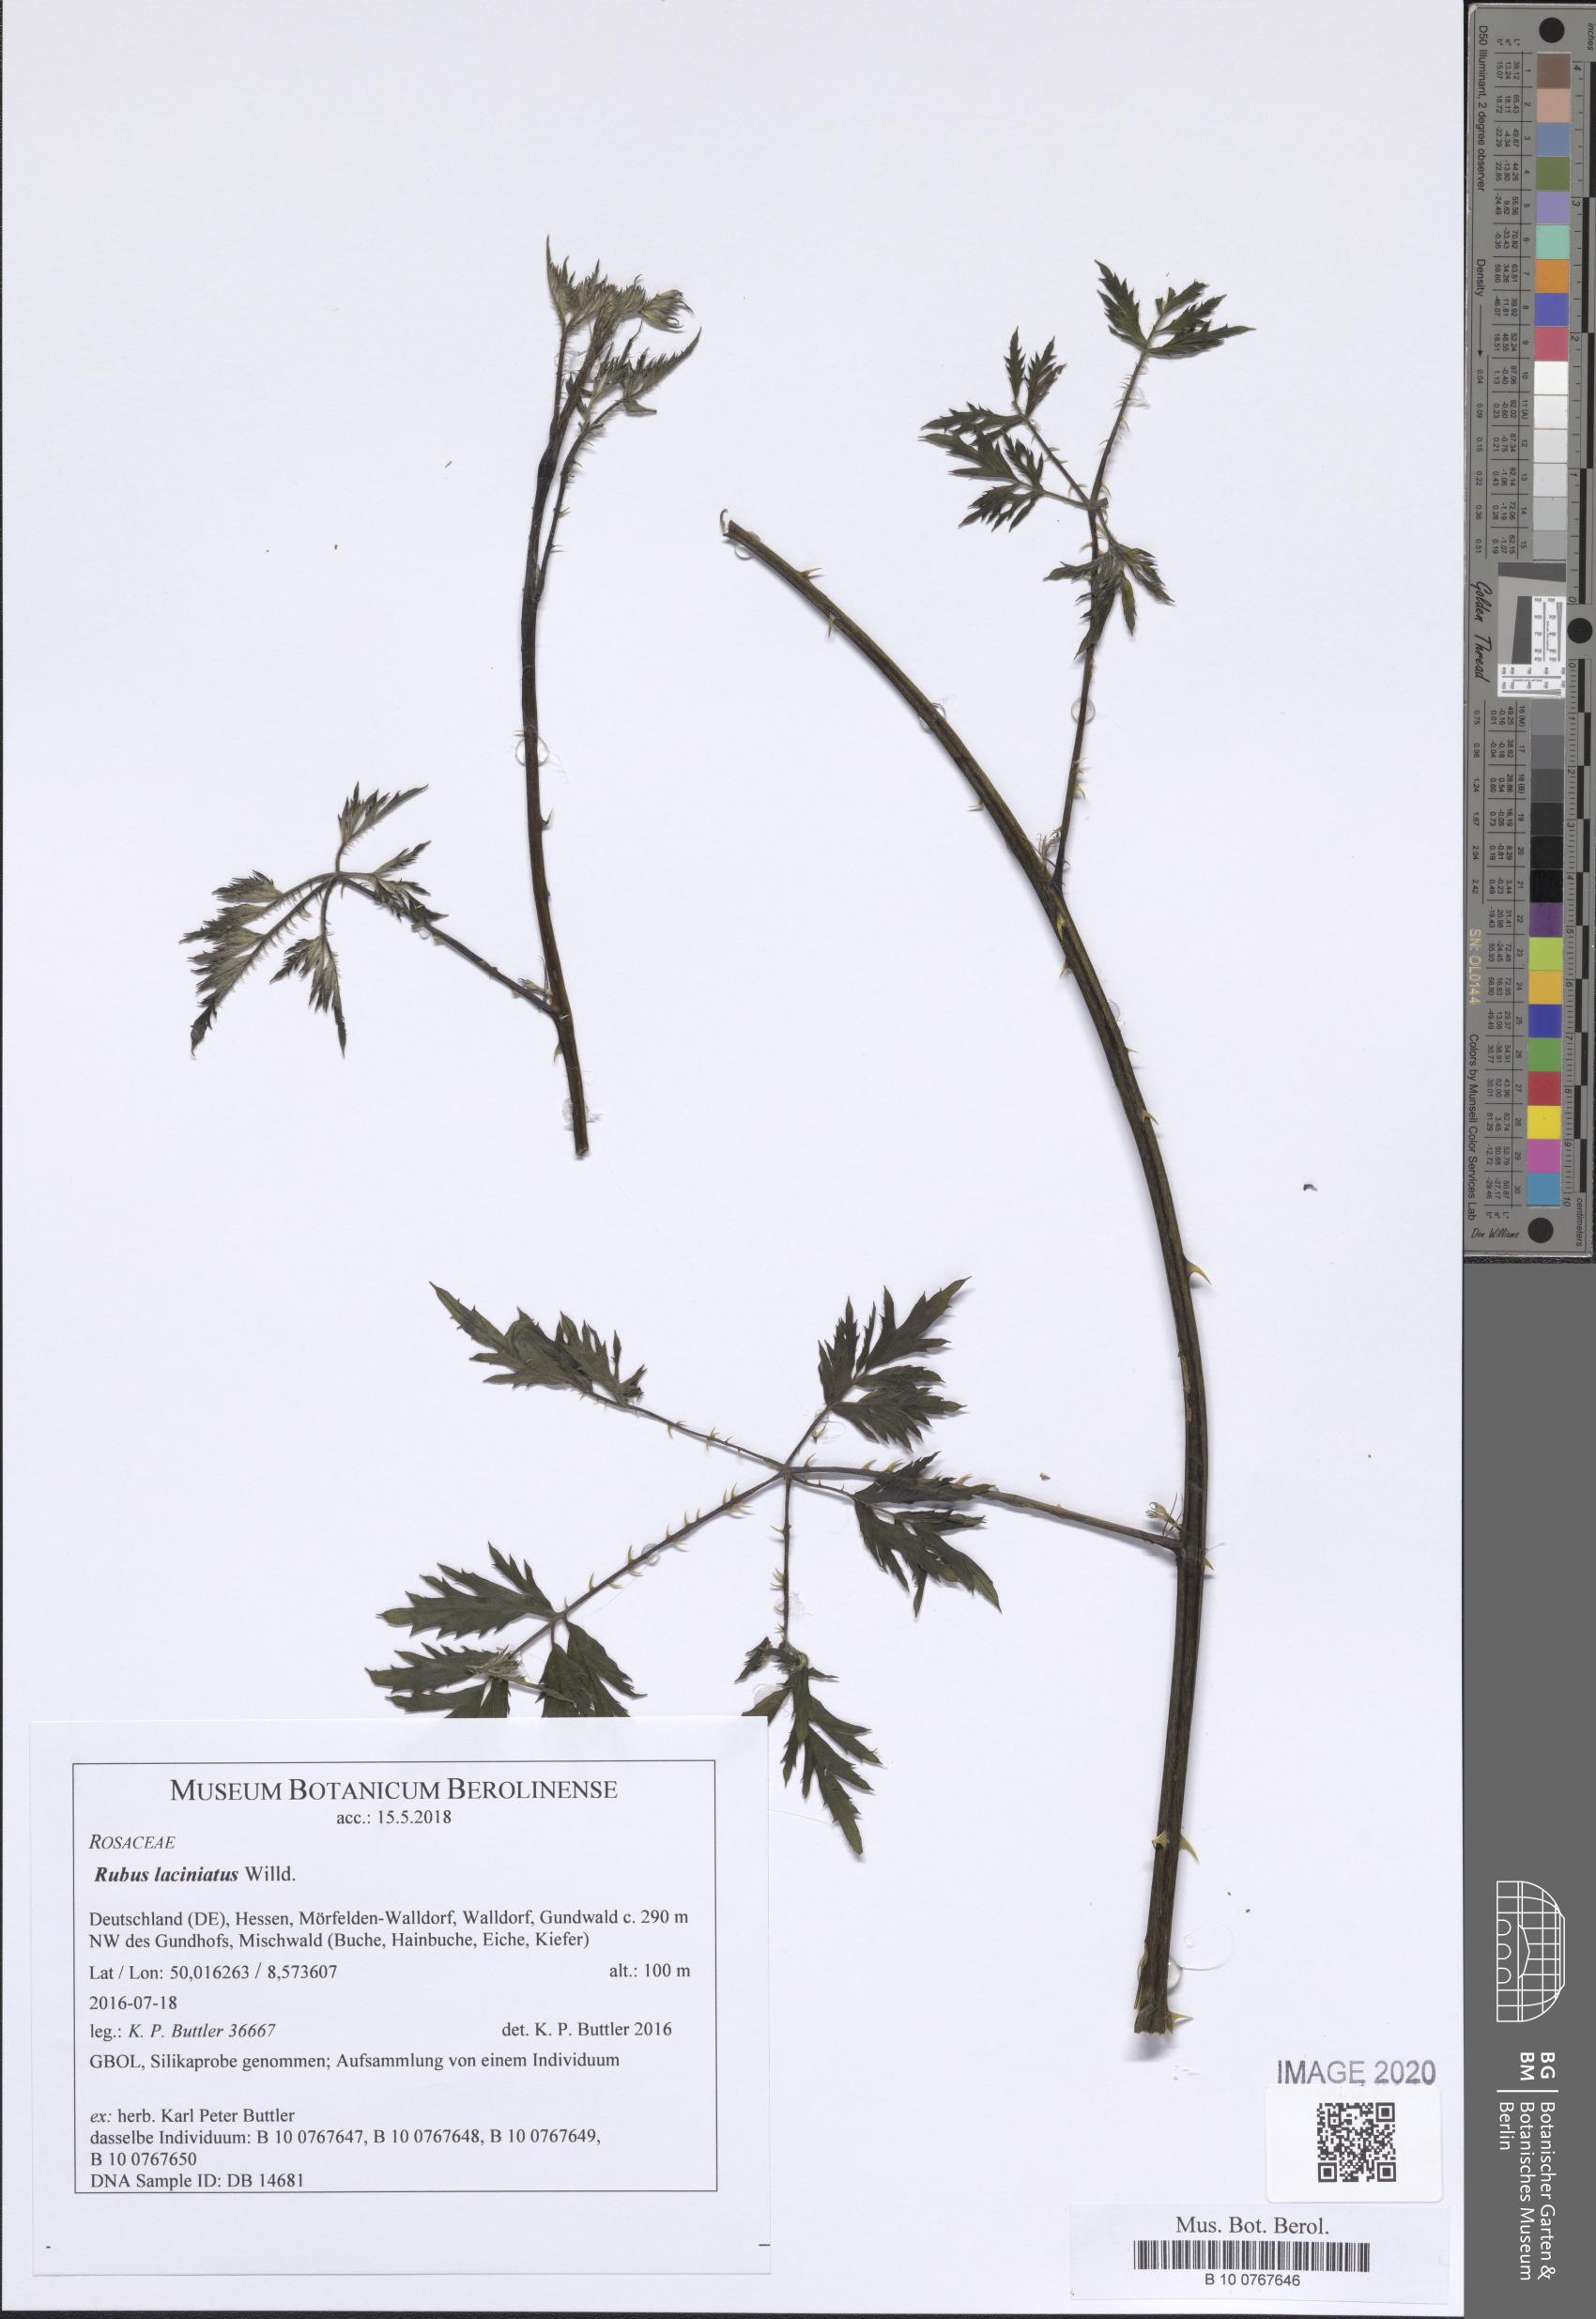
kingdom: Plantae
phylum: Tracheophyta
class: Magnoliopsida
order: Rosales
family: Rosaceae
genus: Rubus
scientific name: Rubus laciniatus
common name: Evergreen blackberry
